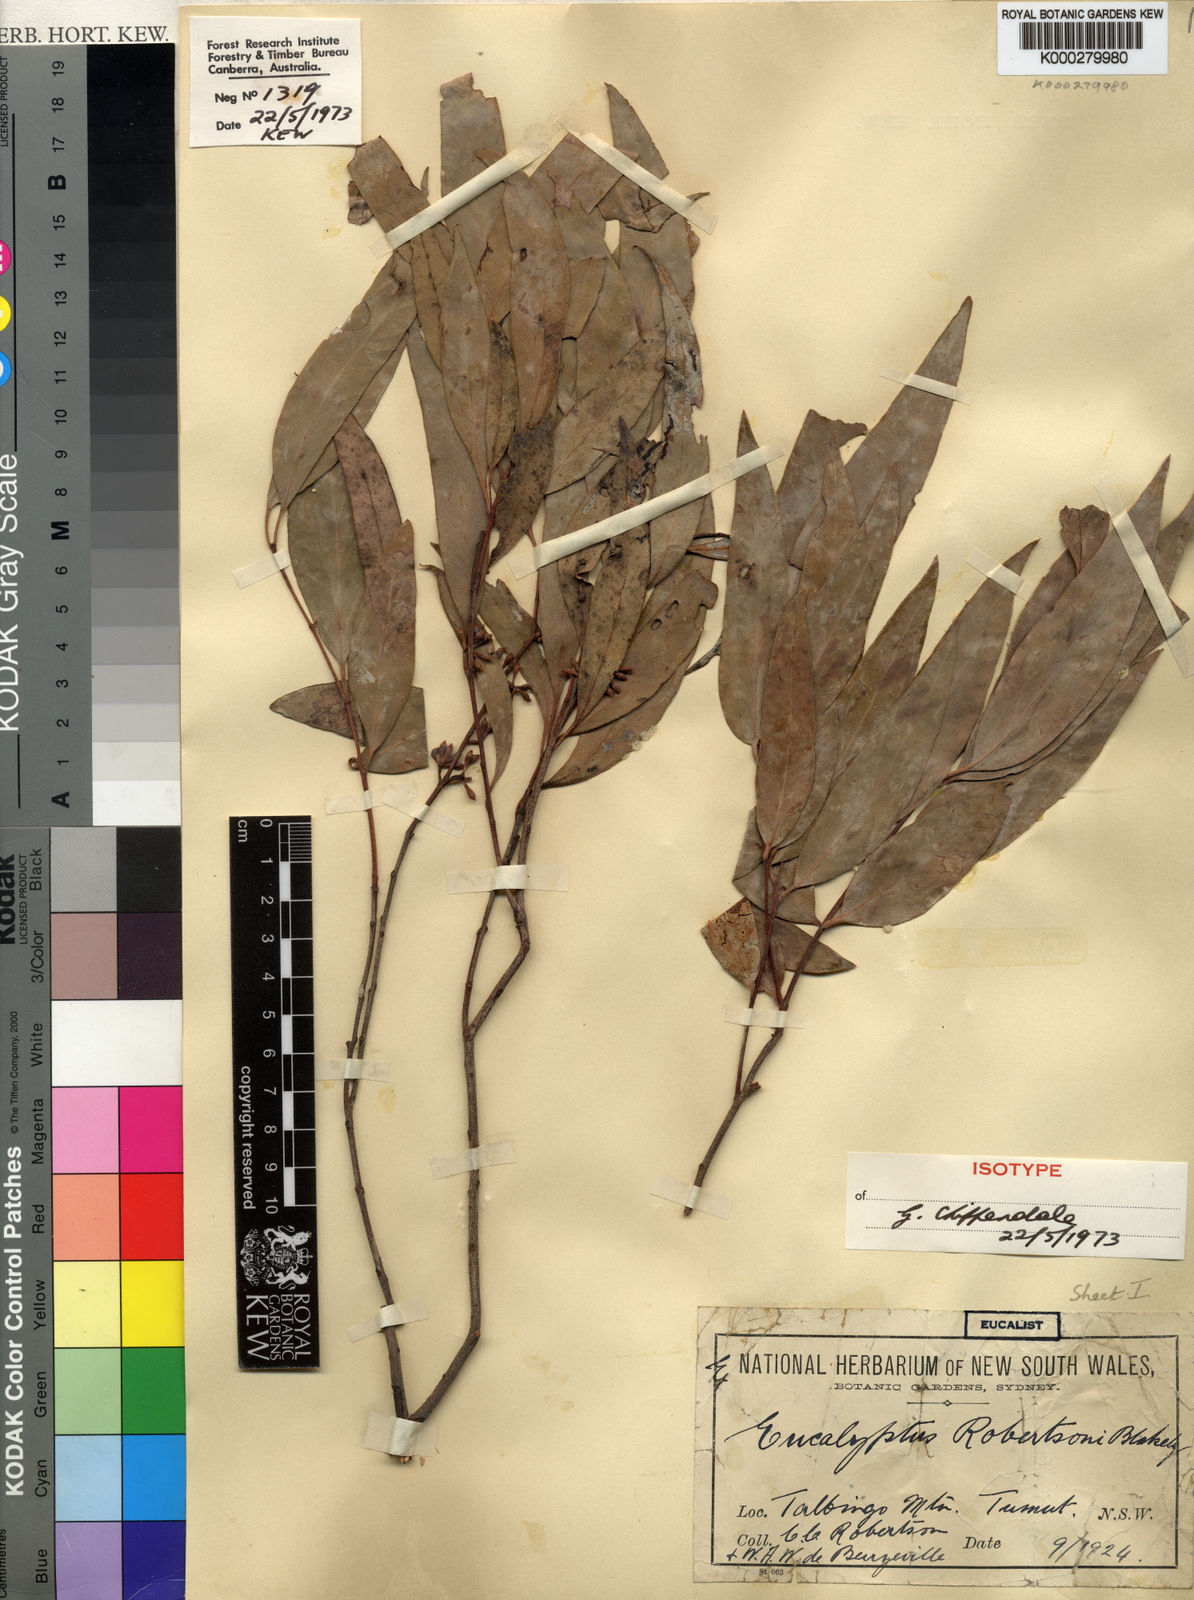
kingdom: Plantae
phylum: Tracheophyta
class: Magnoliopsida
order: Myrtales
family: Myrtaceae
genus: Eucalyptus
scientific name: Eucalyptus robertsonii
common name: Narrow-leaved-peppermint
